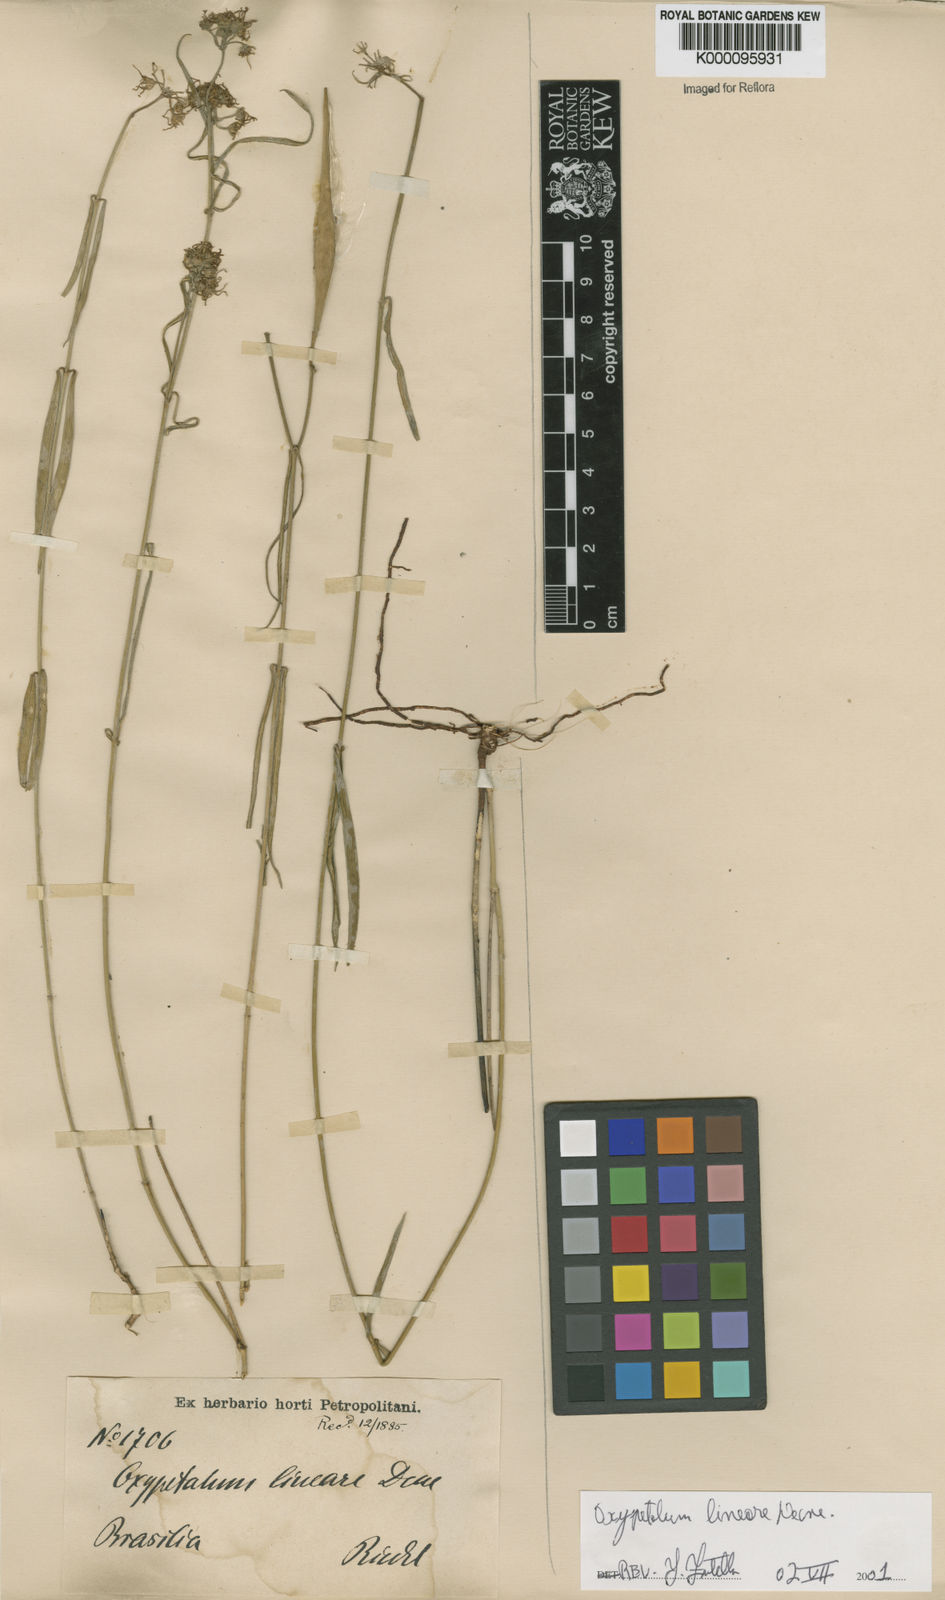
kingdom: Plantae
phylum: Tracheophyta
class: Magnoliopsida
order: Gentianales
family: Apocynaceae
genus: Oxypetalum
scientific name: Oxypetalum lineare
